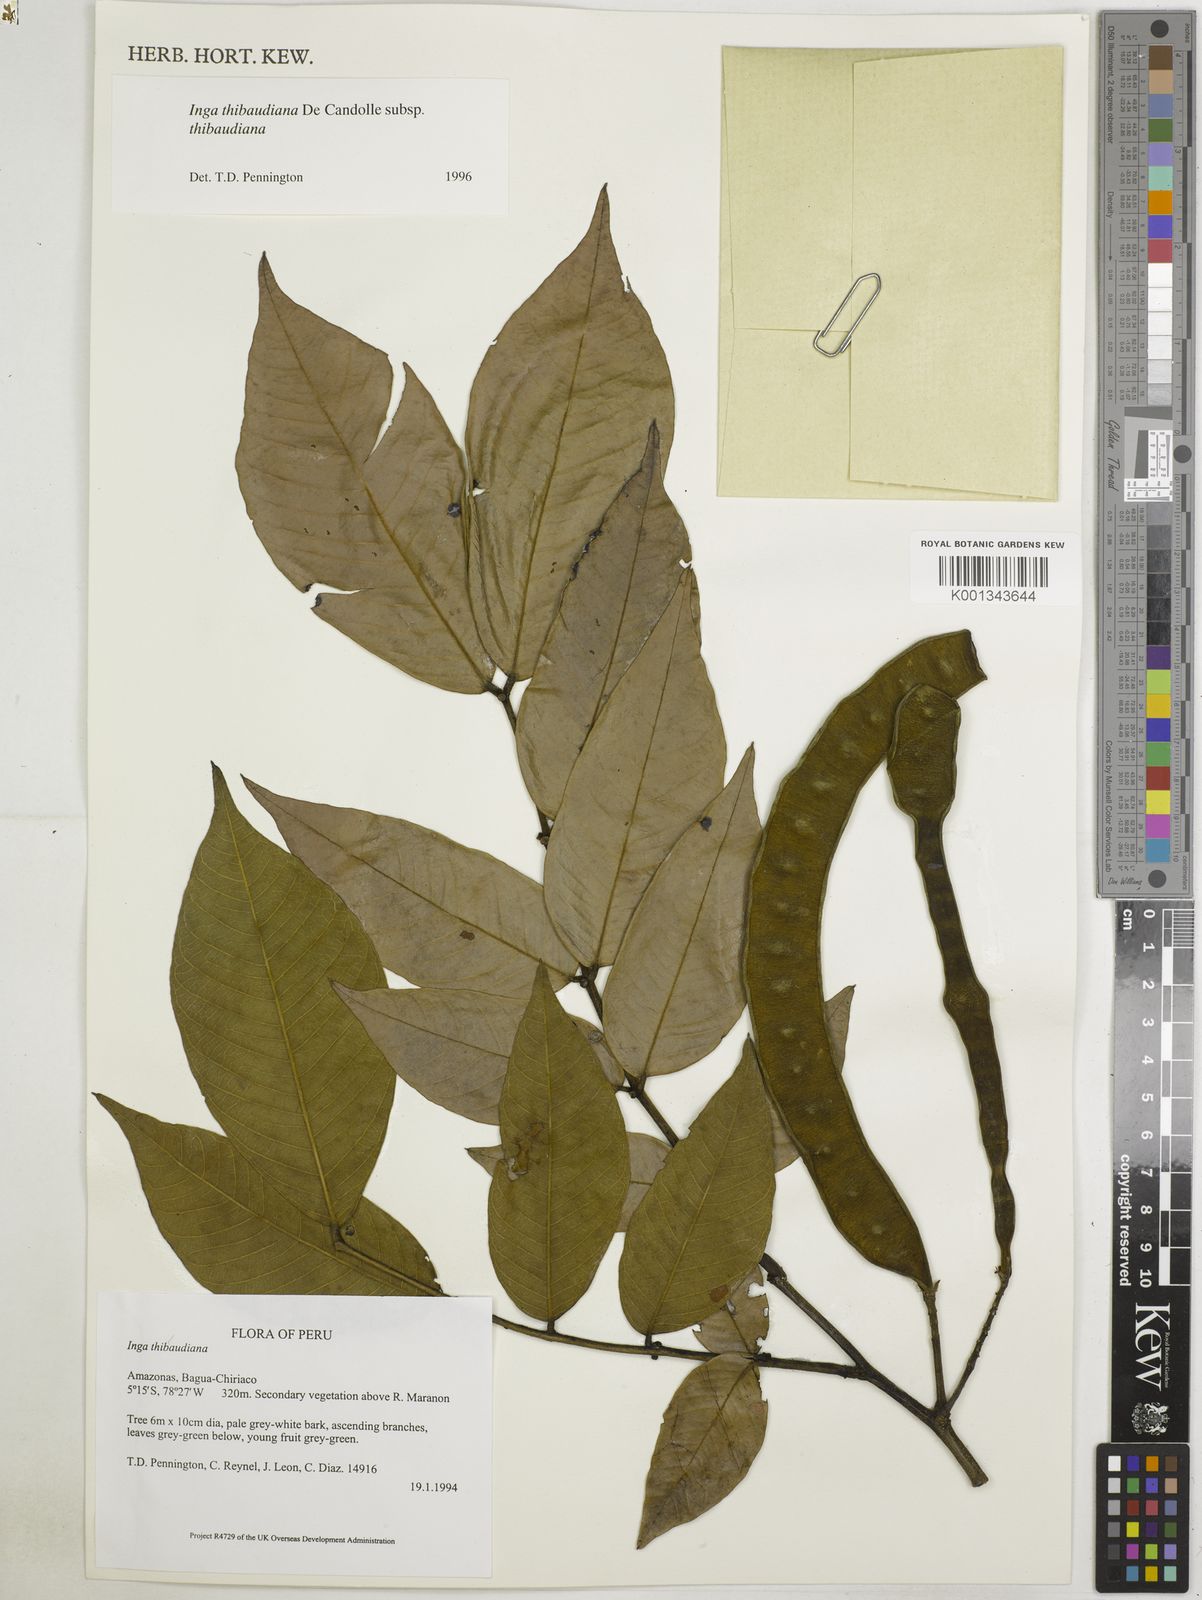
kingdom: Plantae
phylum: Tracheophyta
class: Magnoliopsida
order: Fabales
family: Fabaceae
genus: Inga
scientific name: Inga thibaudiana
